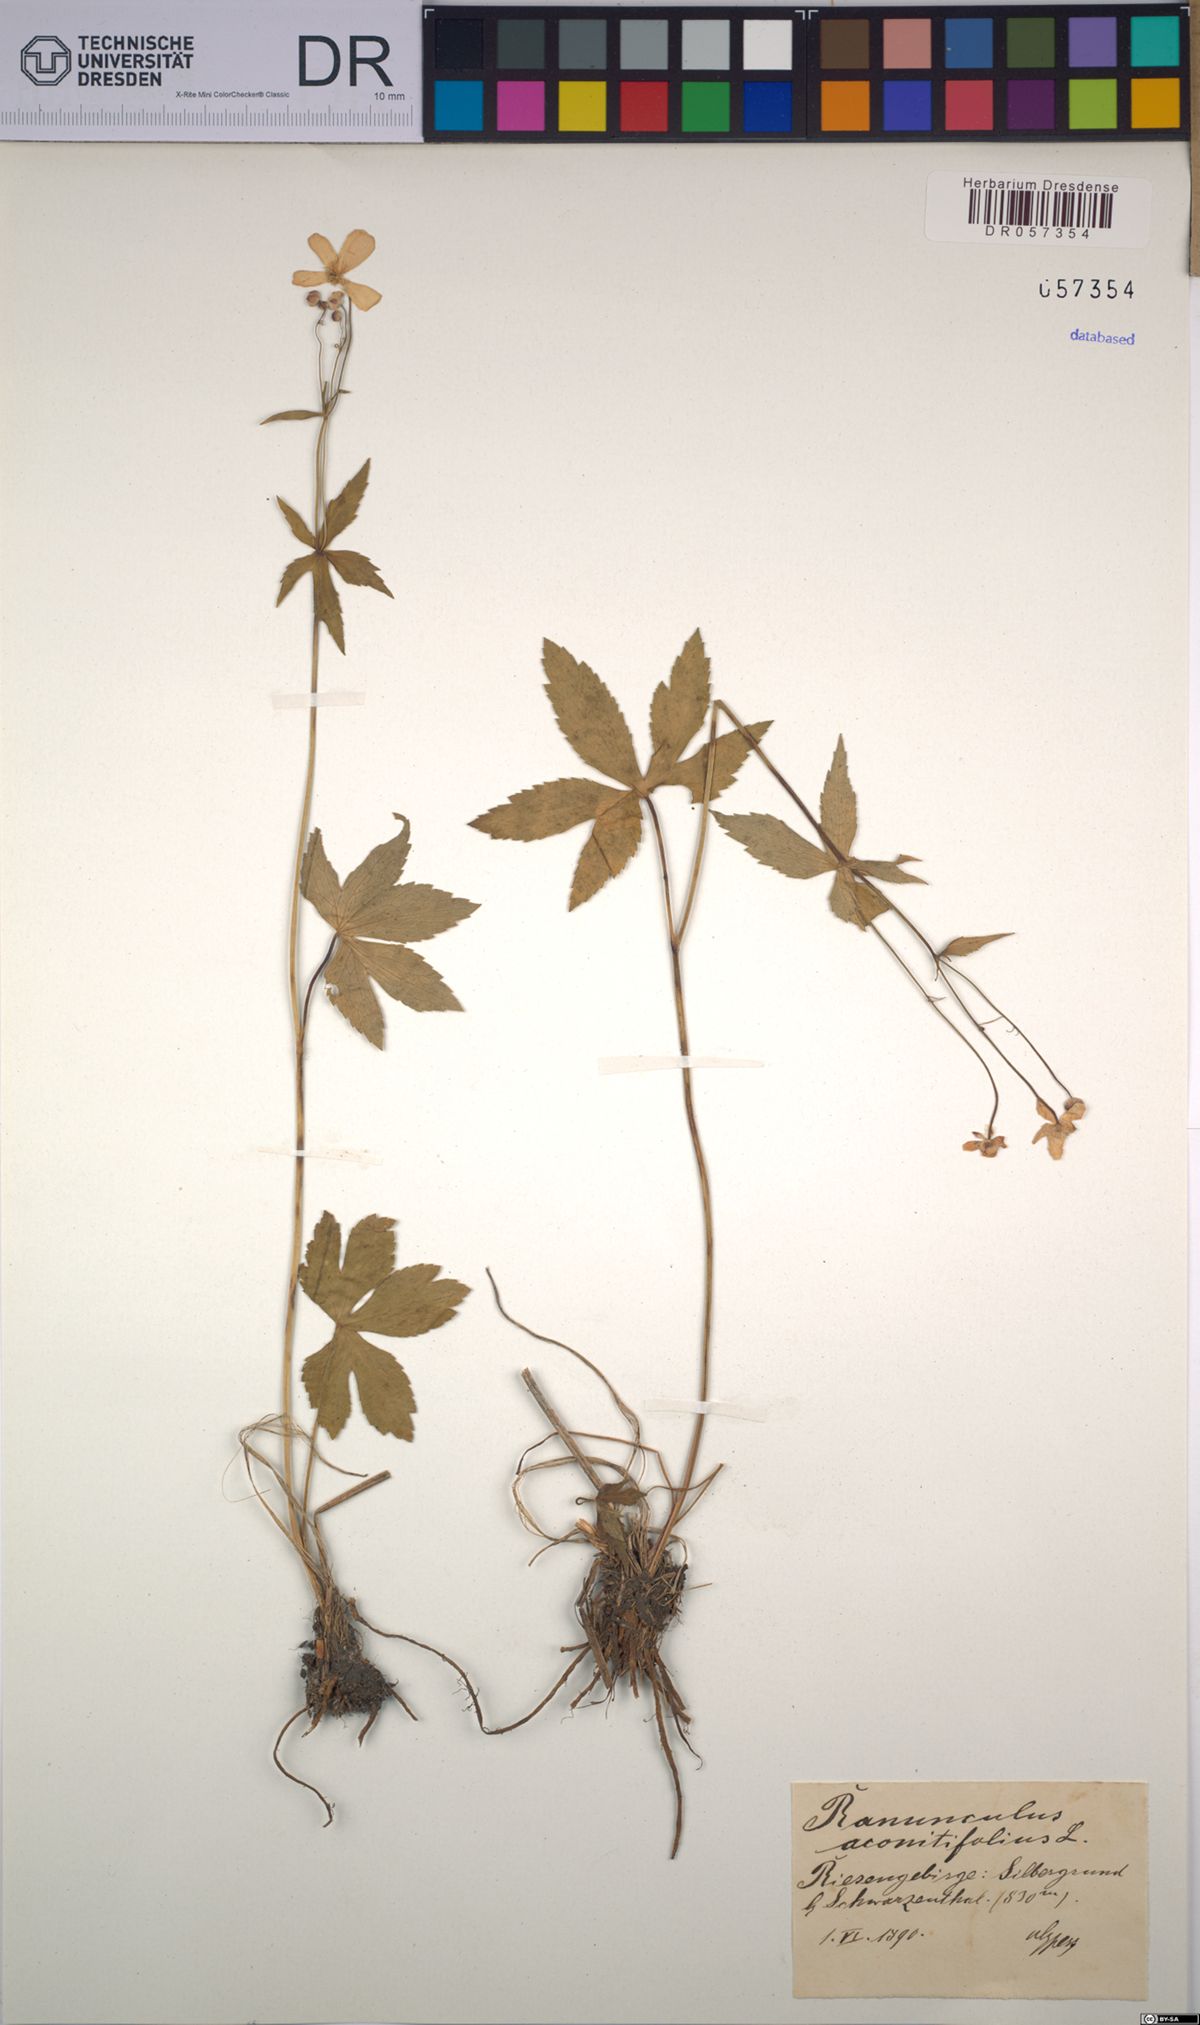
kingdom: Plantae
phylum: Tracheophyta
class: Magnoliopsida
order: Ranunculales
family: Ranunculaceae
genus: Ranunculus
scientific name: Ranunculus aconitifolius
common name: Aconite-leaved buttercup
